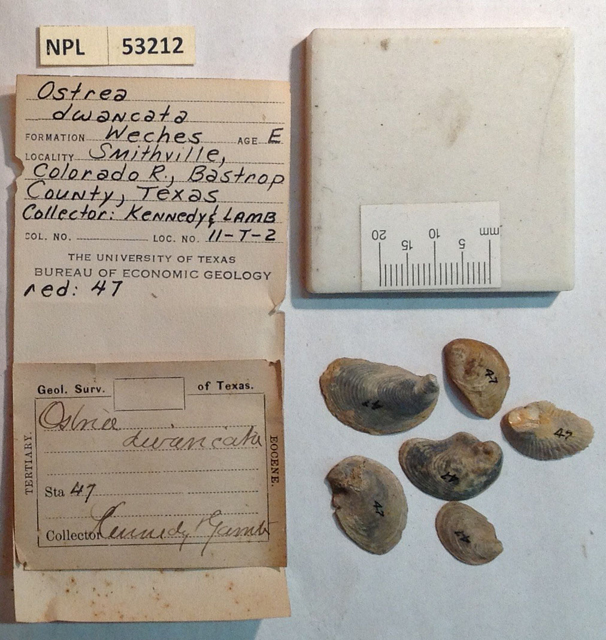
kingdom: Animalia
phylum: Mollusca
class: Bivalvia
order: Ostreida
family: Ostreidae
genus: Cubitostrea
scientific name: Cubitostrea Ostrea divaricata
